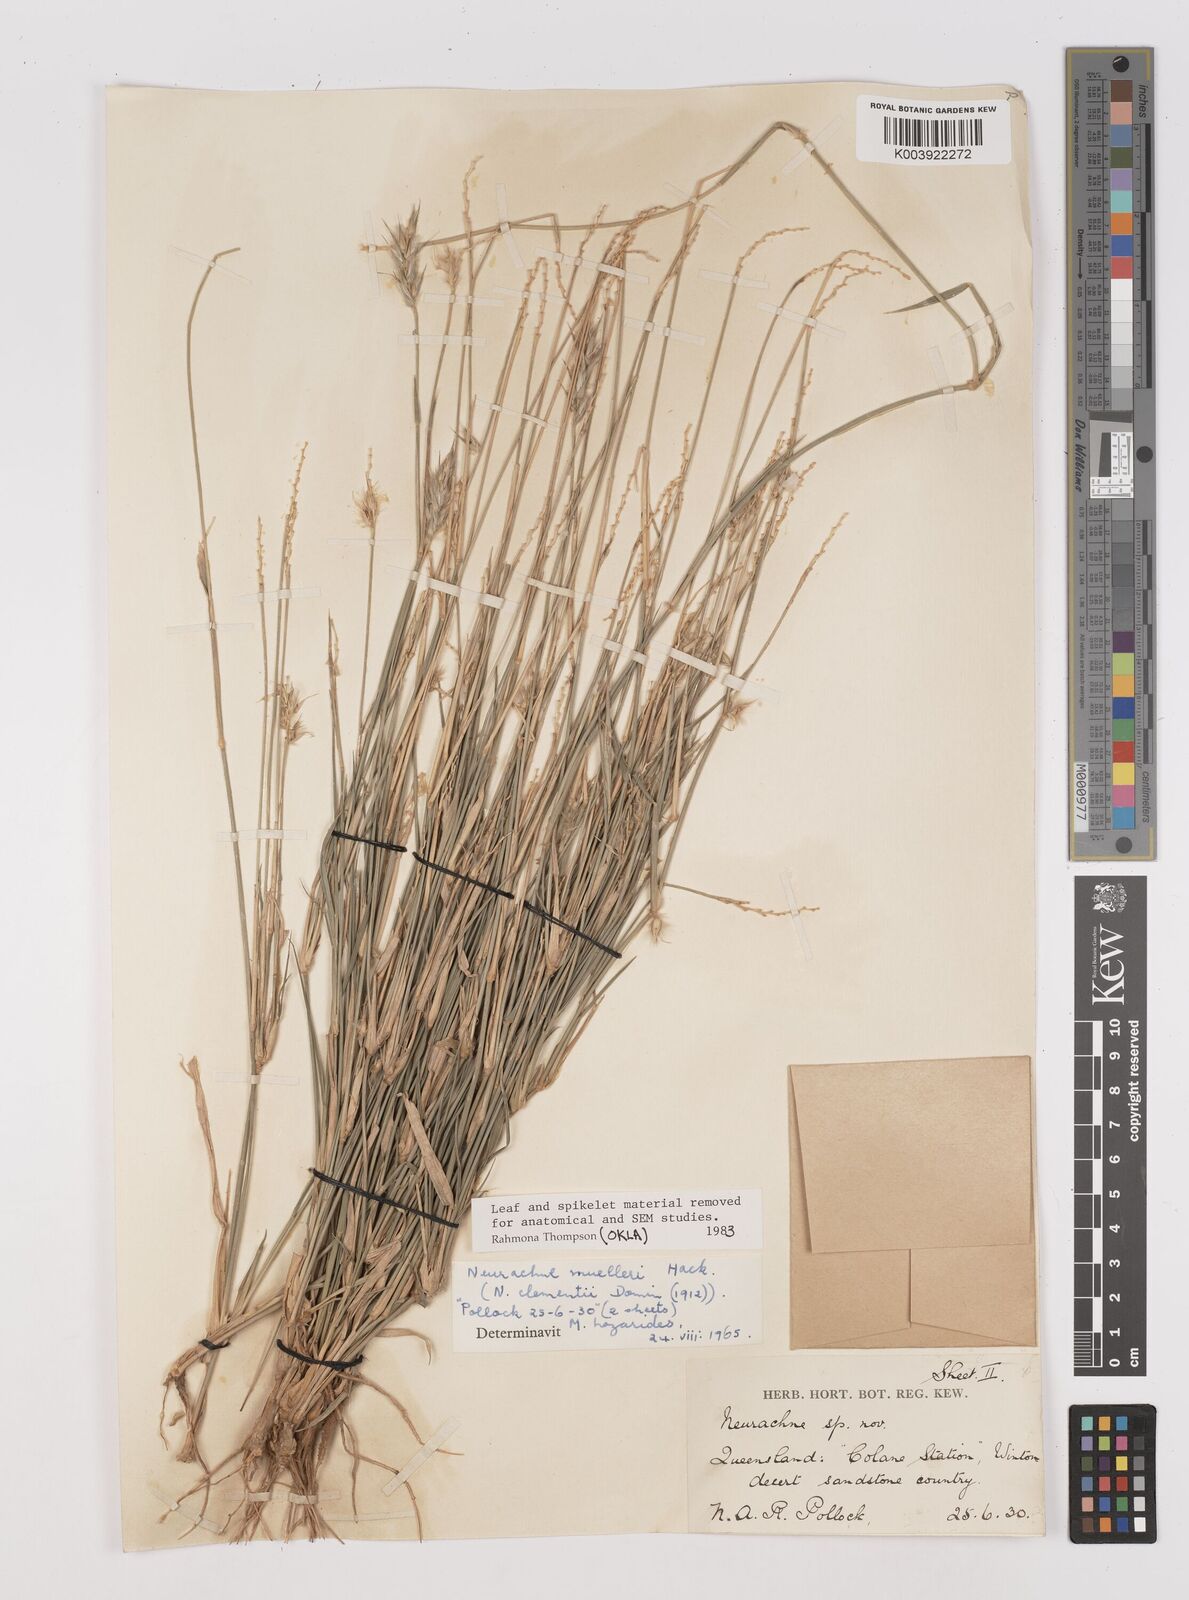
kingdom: Plantae
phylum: Tracheophyta
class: Liliopsida
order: Poales
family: Poaceae
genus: Neurachne
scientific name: Neurachne muelleri
